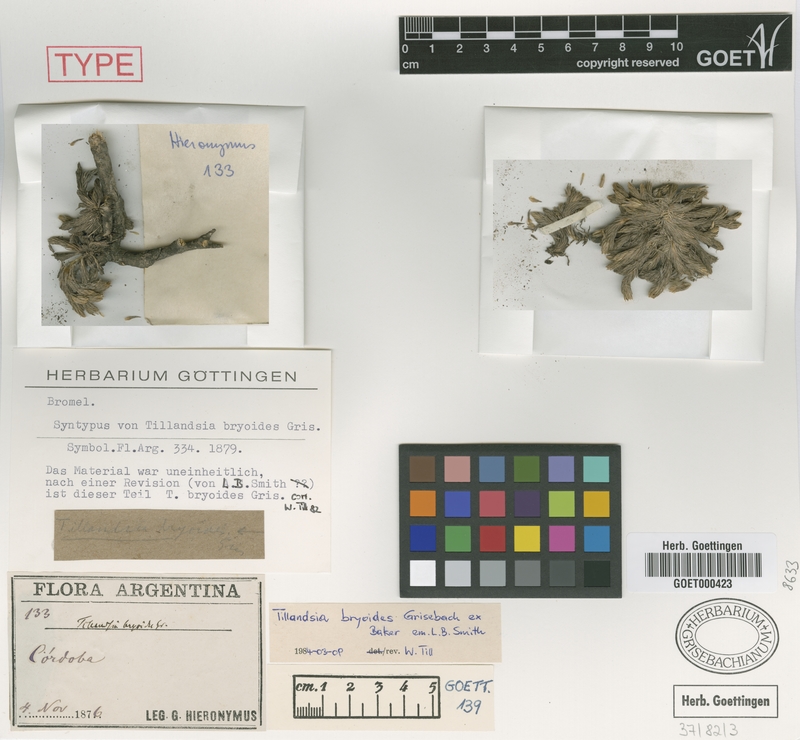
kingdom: Plantae
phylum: Tracheophyta
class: Liliopsida
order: Poales
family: Bromeliaceae
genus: Tillandsia
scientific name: Tillandsia tricholepis
